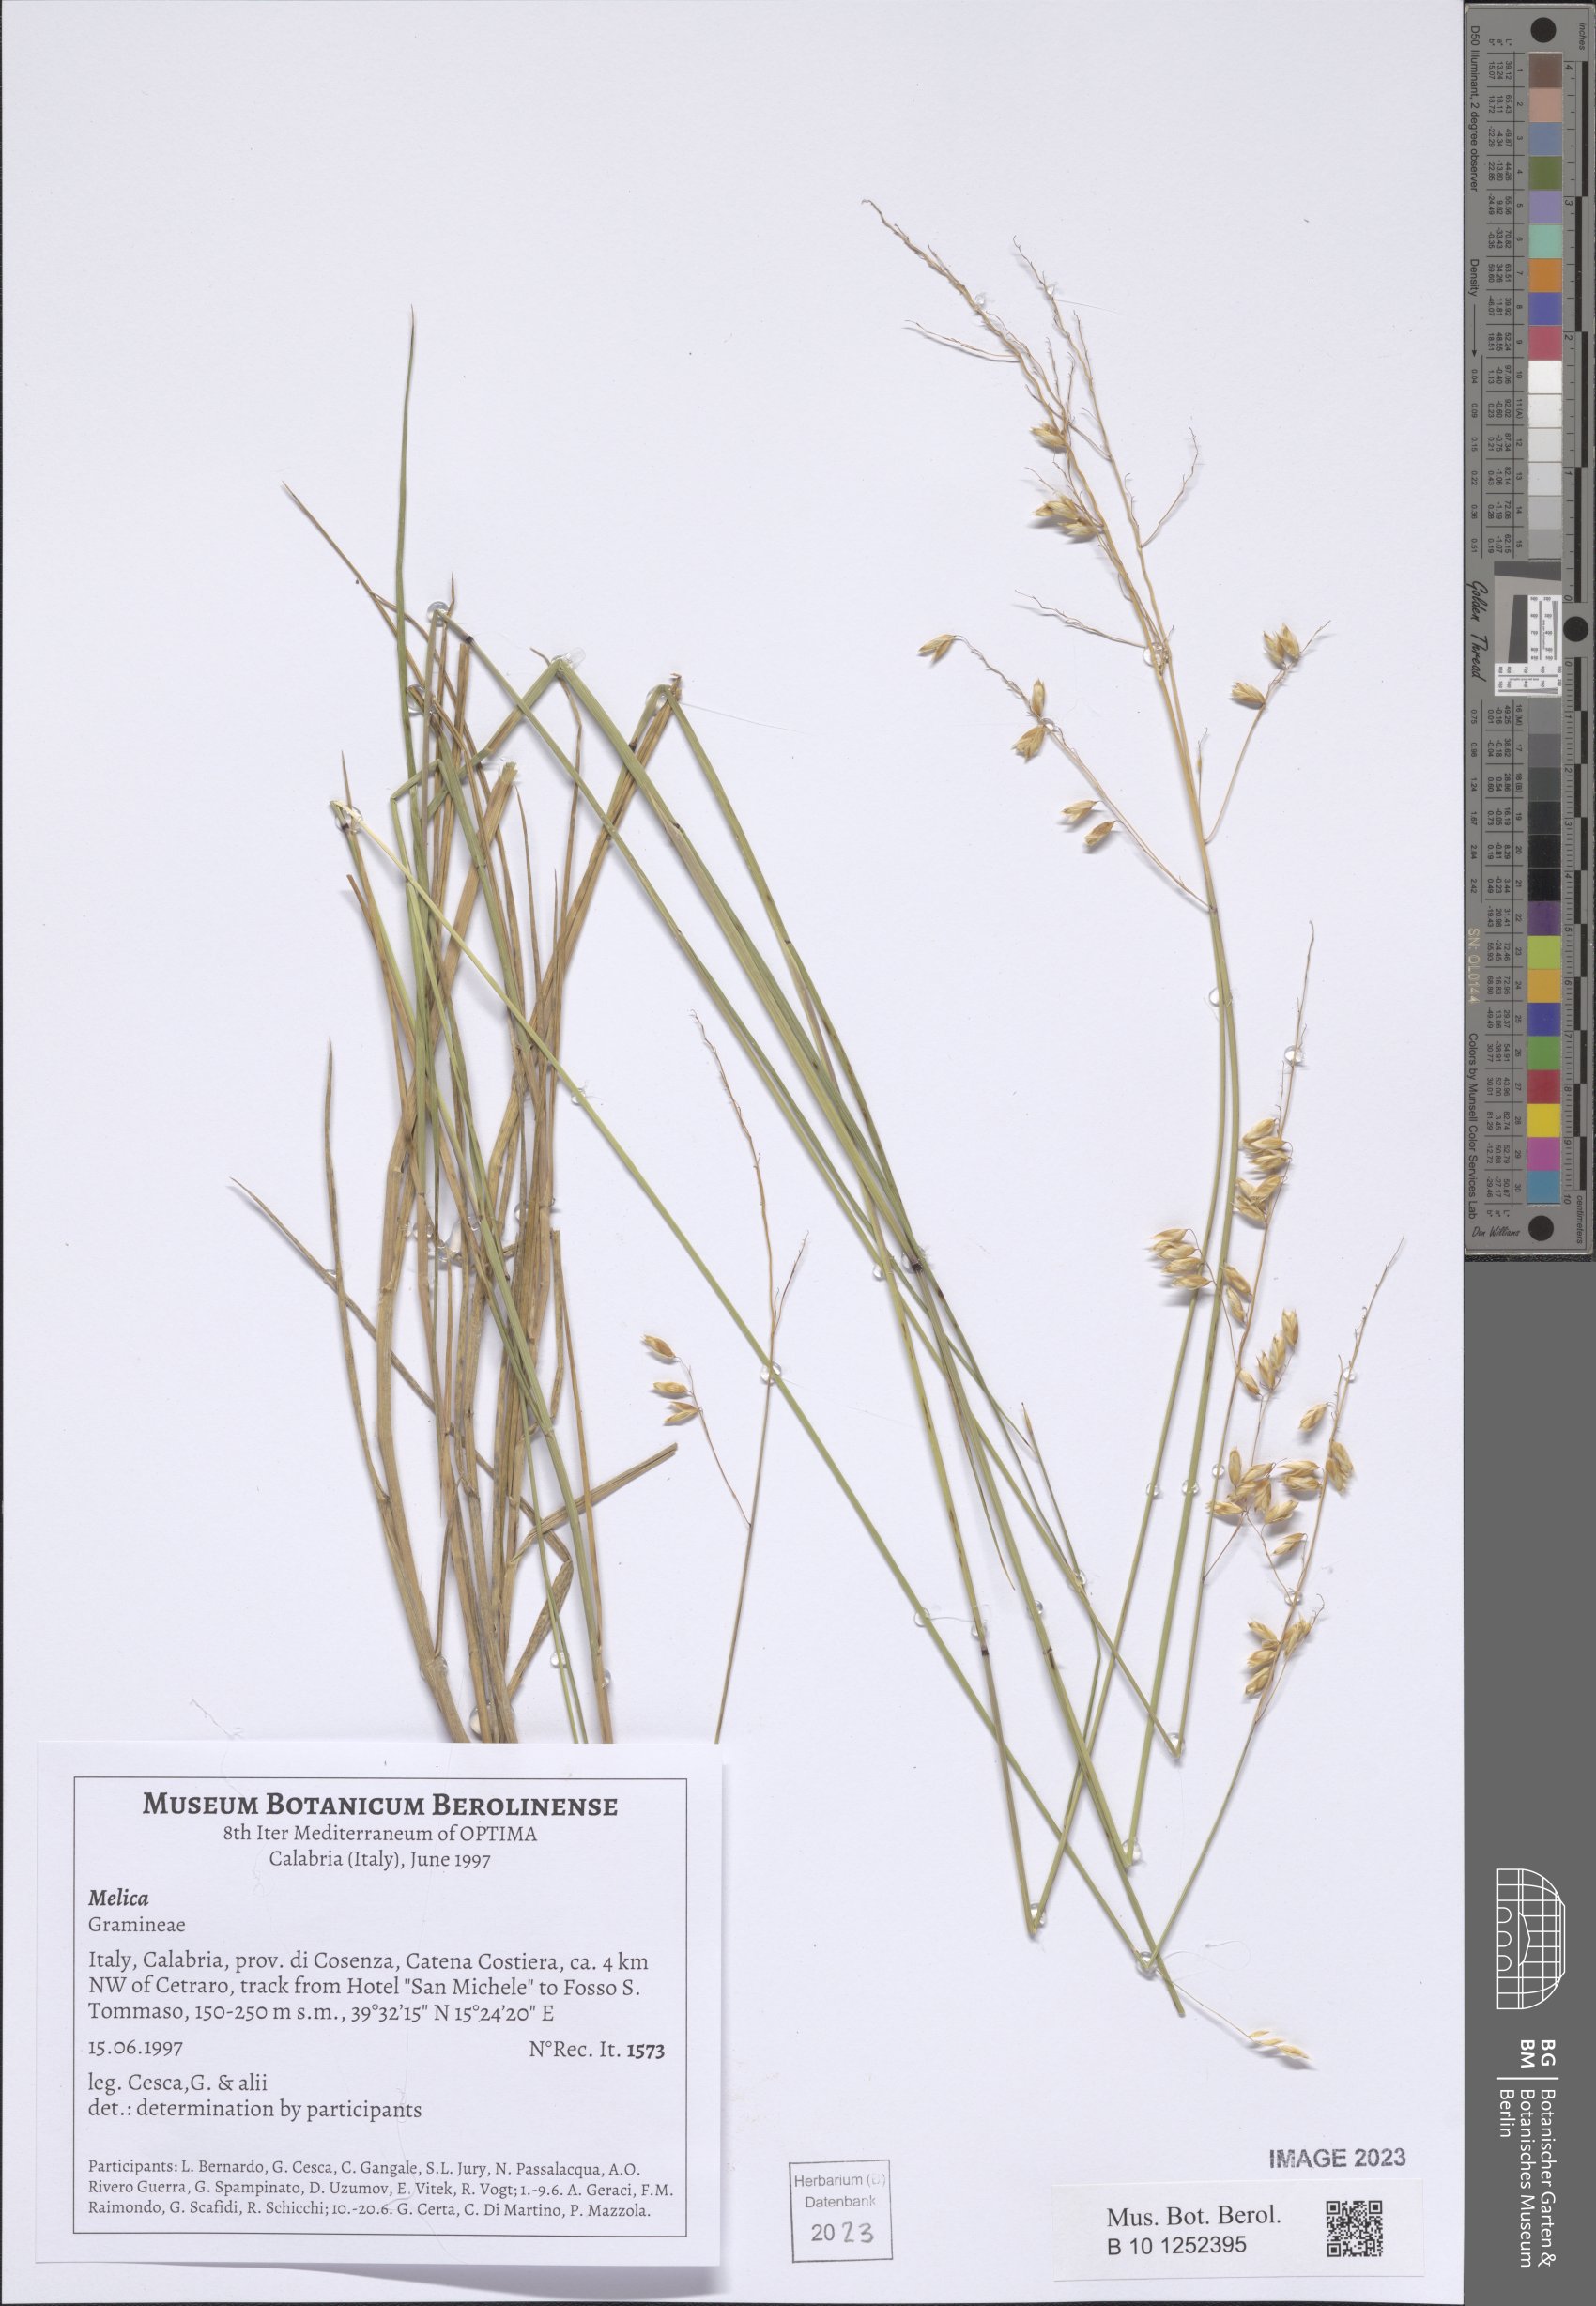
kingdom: Plantae
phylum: Tracheophyta
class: Liliopsida
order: Poales
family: Poaceae
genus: Melica
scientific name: Melica
